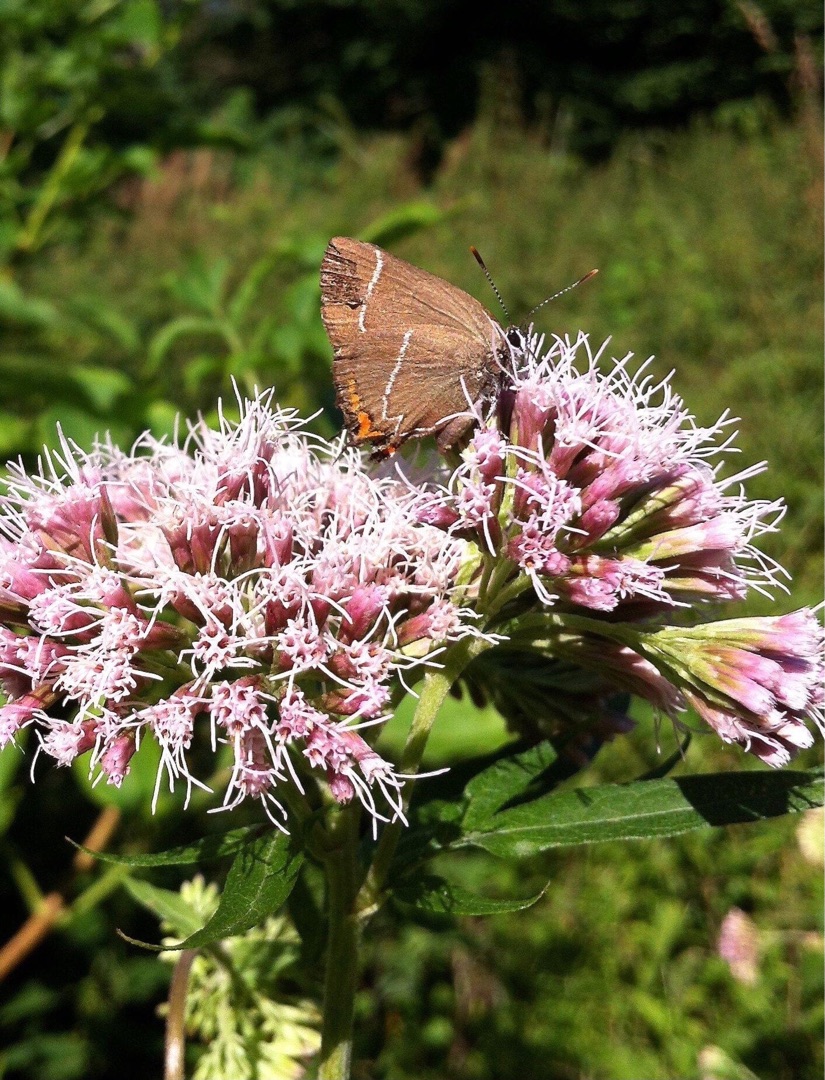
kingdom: Animalia
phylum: Arthropoda
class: Insecta
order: Lepidoptera
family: Lycaenidae
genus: Satyrium
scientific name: Satyrium w-album
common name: Det hvide W
